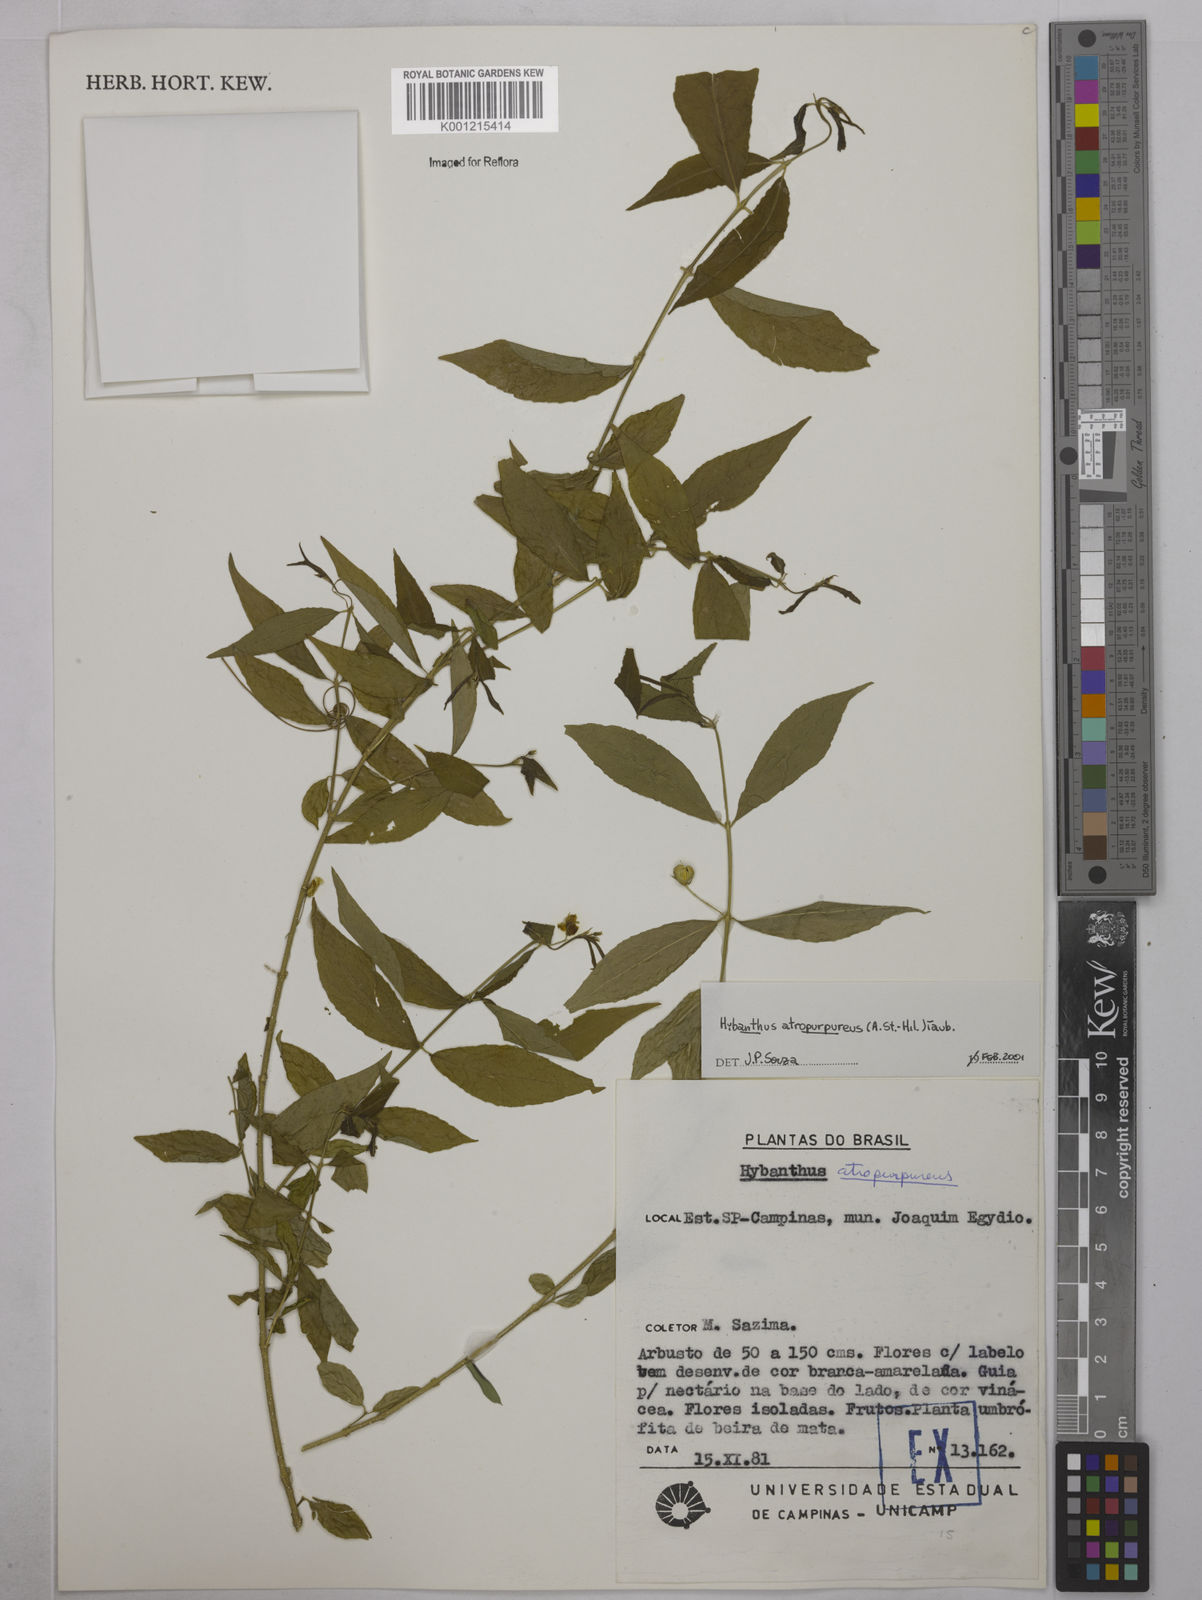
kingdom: Plantae
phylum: Tracheophyta
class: Magnoliopsida
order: Malpighiales
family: Violaceae
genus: Pombalia
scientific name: Pombalia atropurpurea
